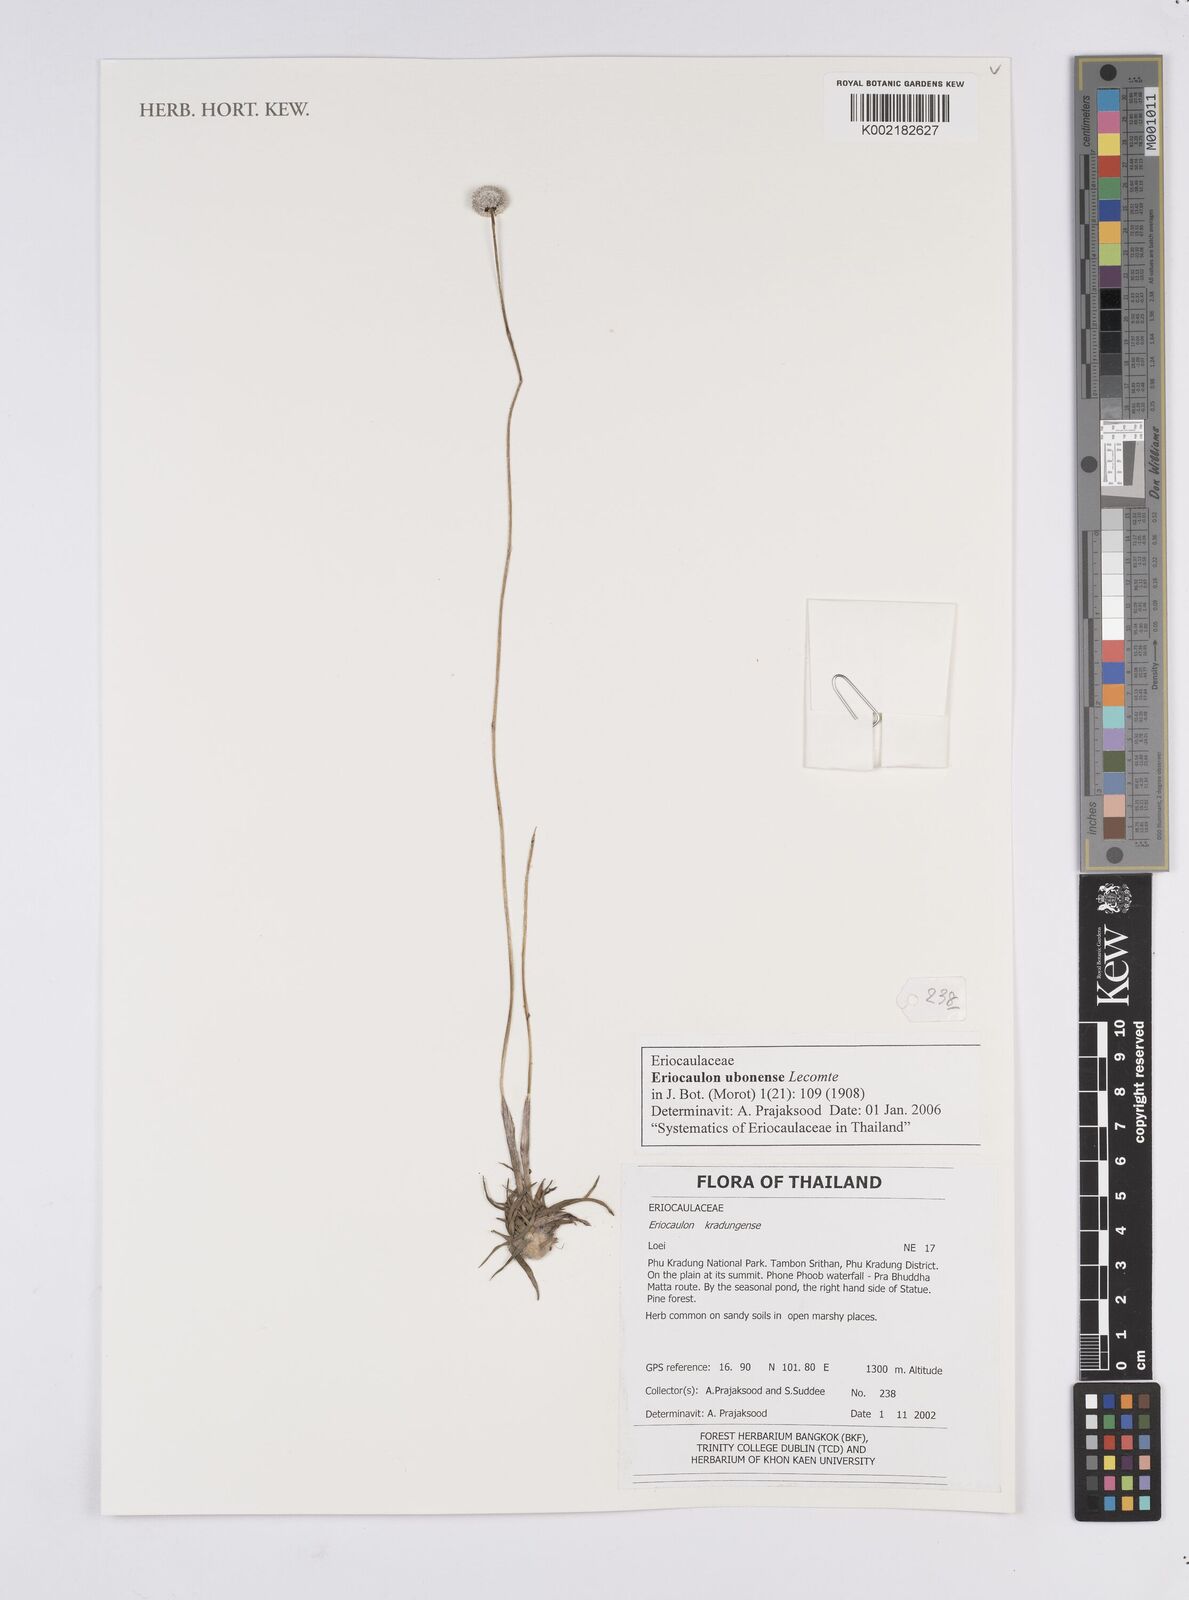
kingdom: Plantae
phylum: Tracheophyta
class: Liliopsida
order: Poales
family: Eriocaulaceae
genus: Eriocaulon
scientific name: Eriocaulon ubonense
